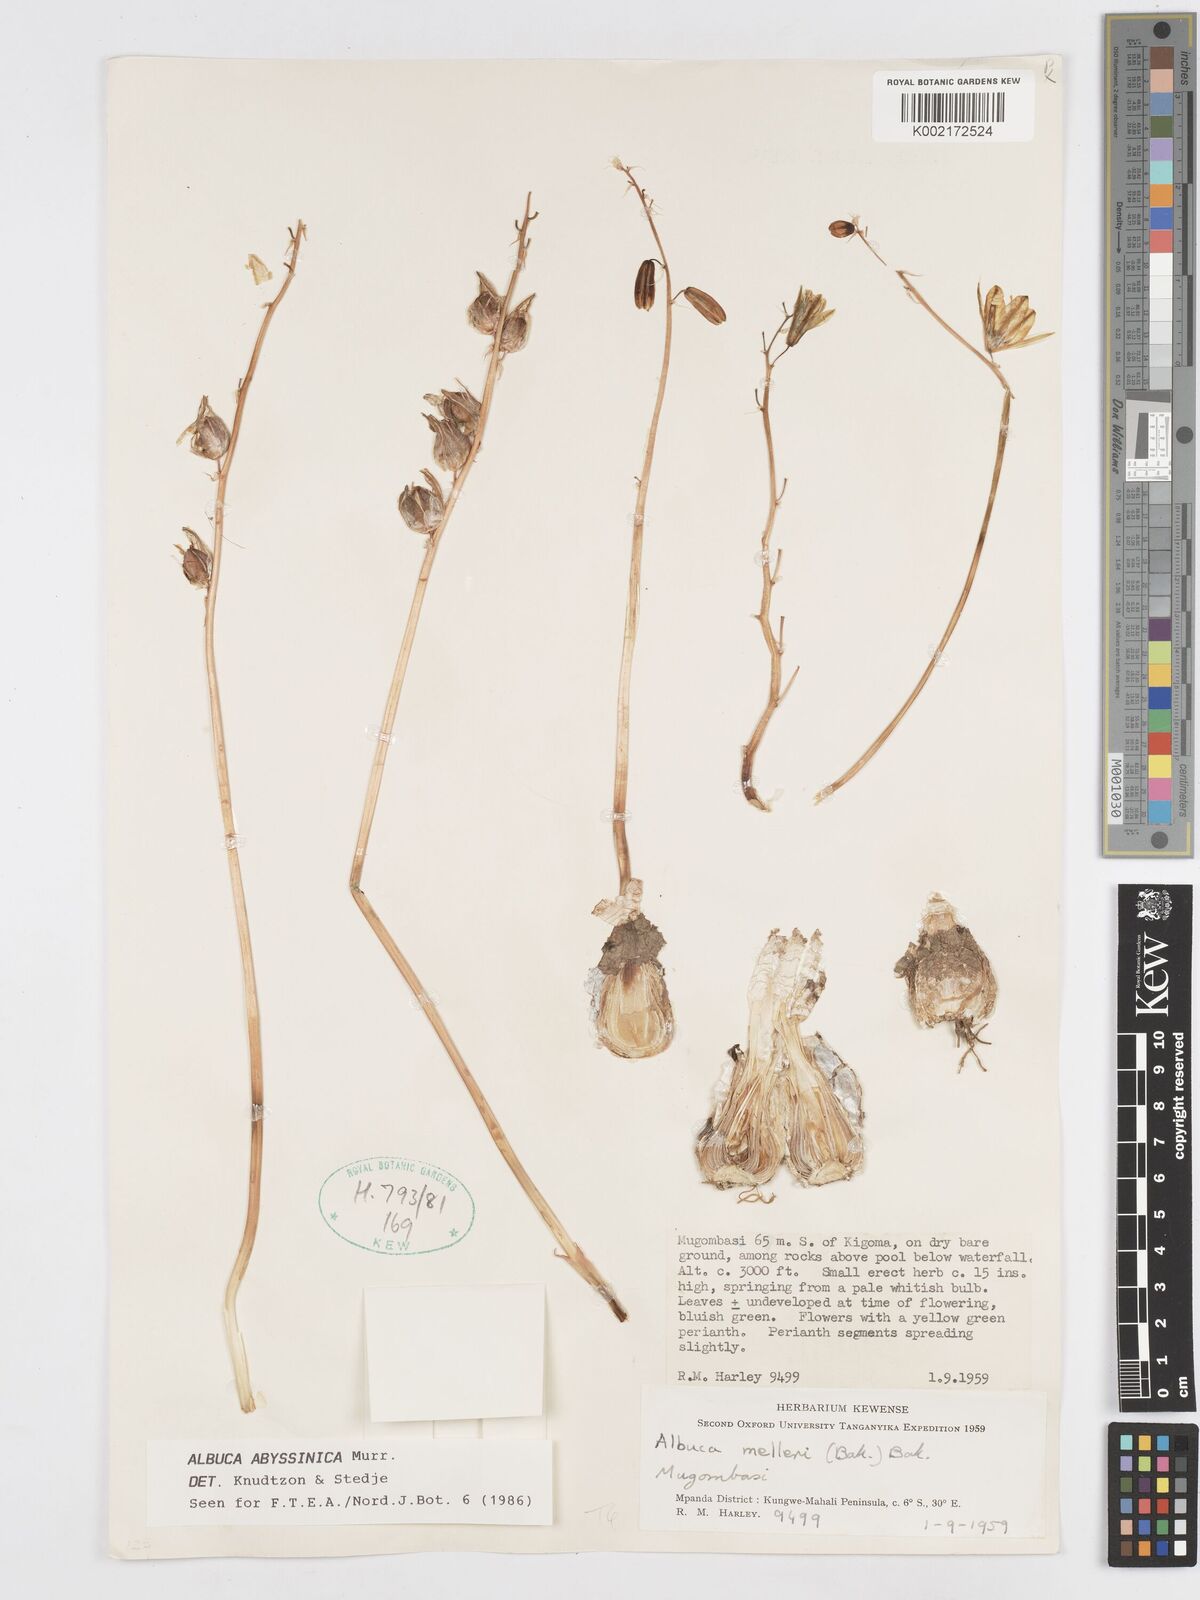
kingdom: Plantae
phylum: Tracheophyta
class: Liliopsida
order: Asparagales
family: Asparagaceae
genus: Albuca
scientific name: Albuca abyssinica
